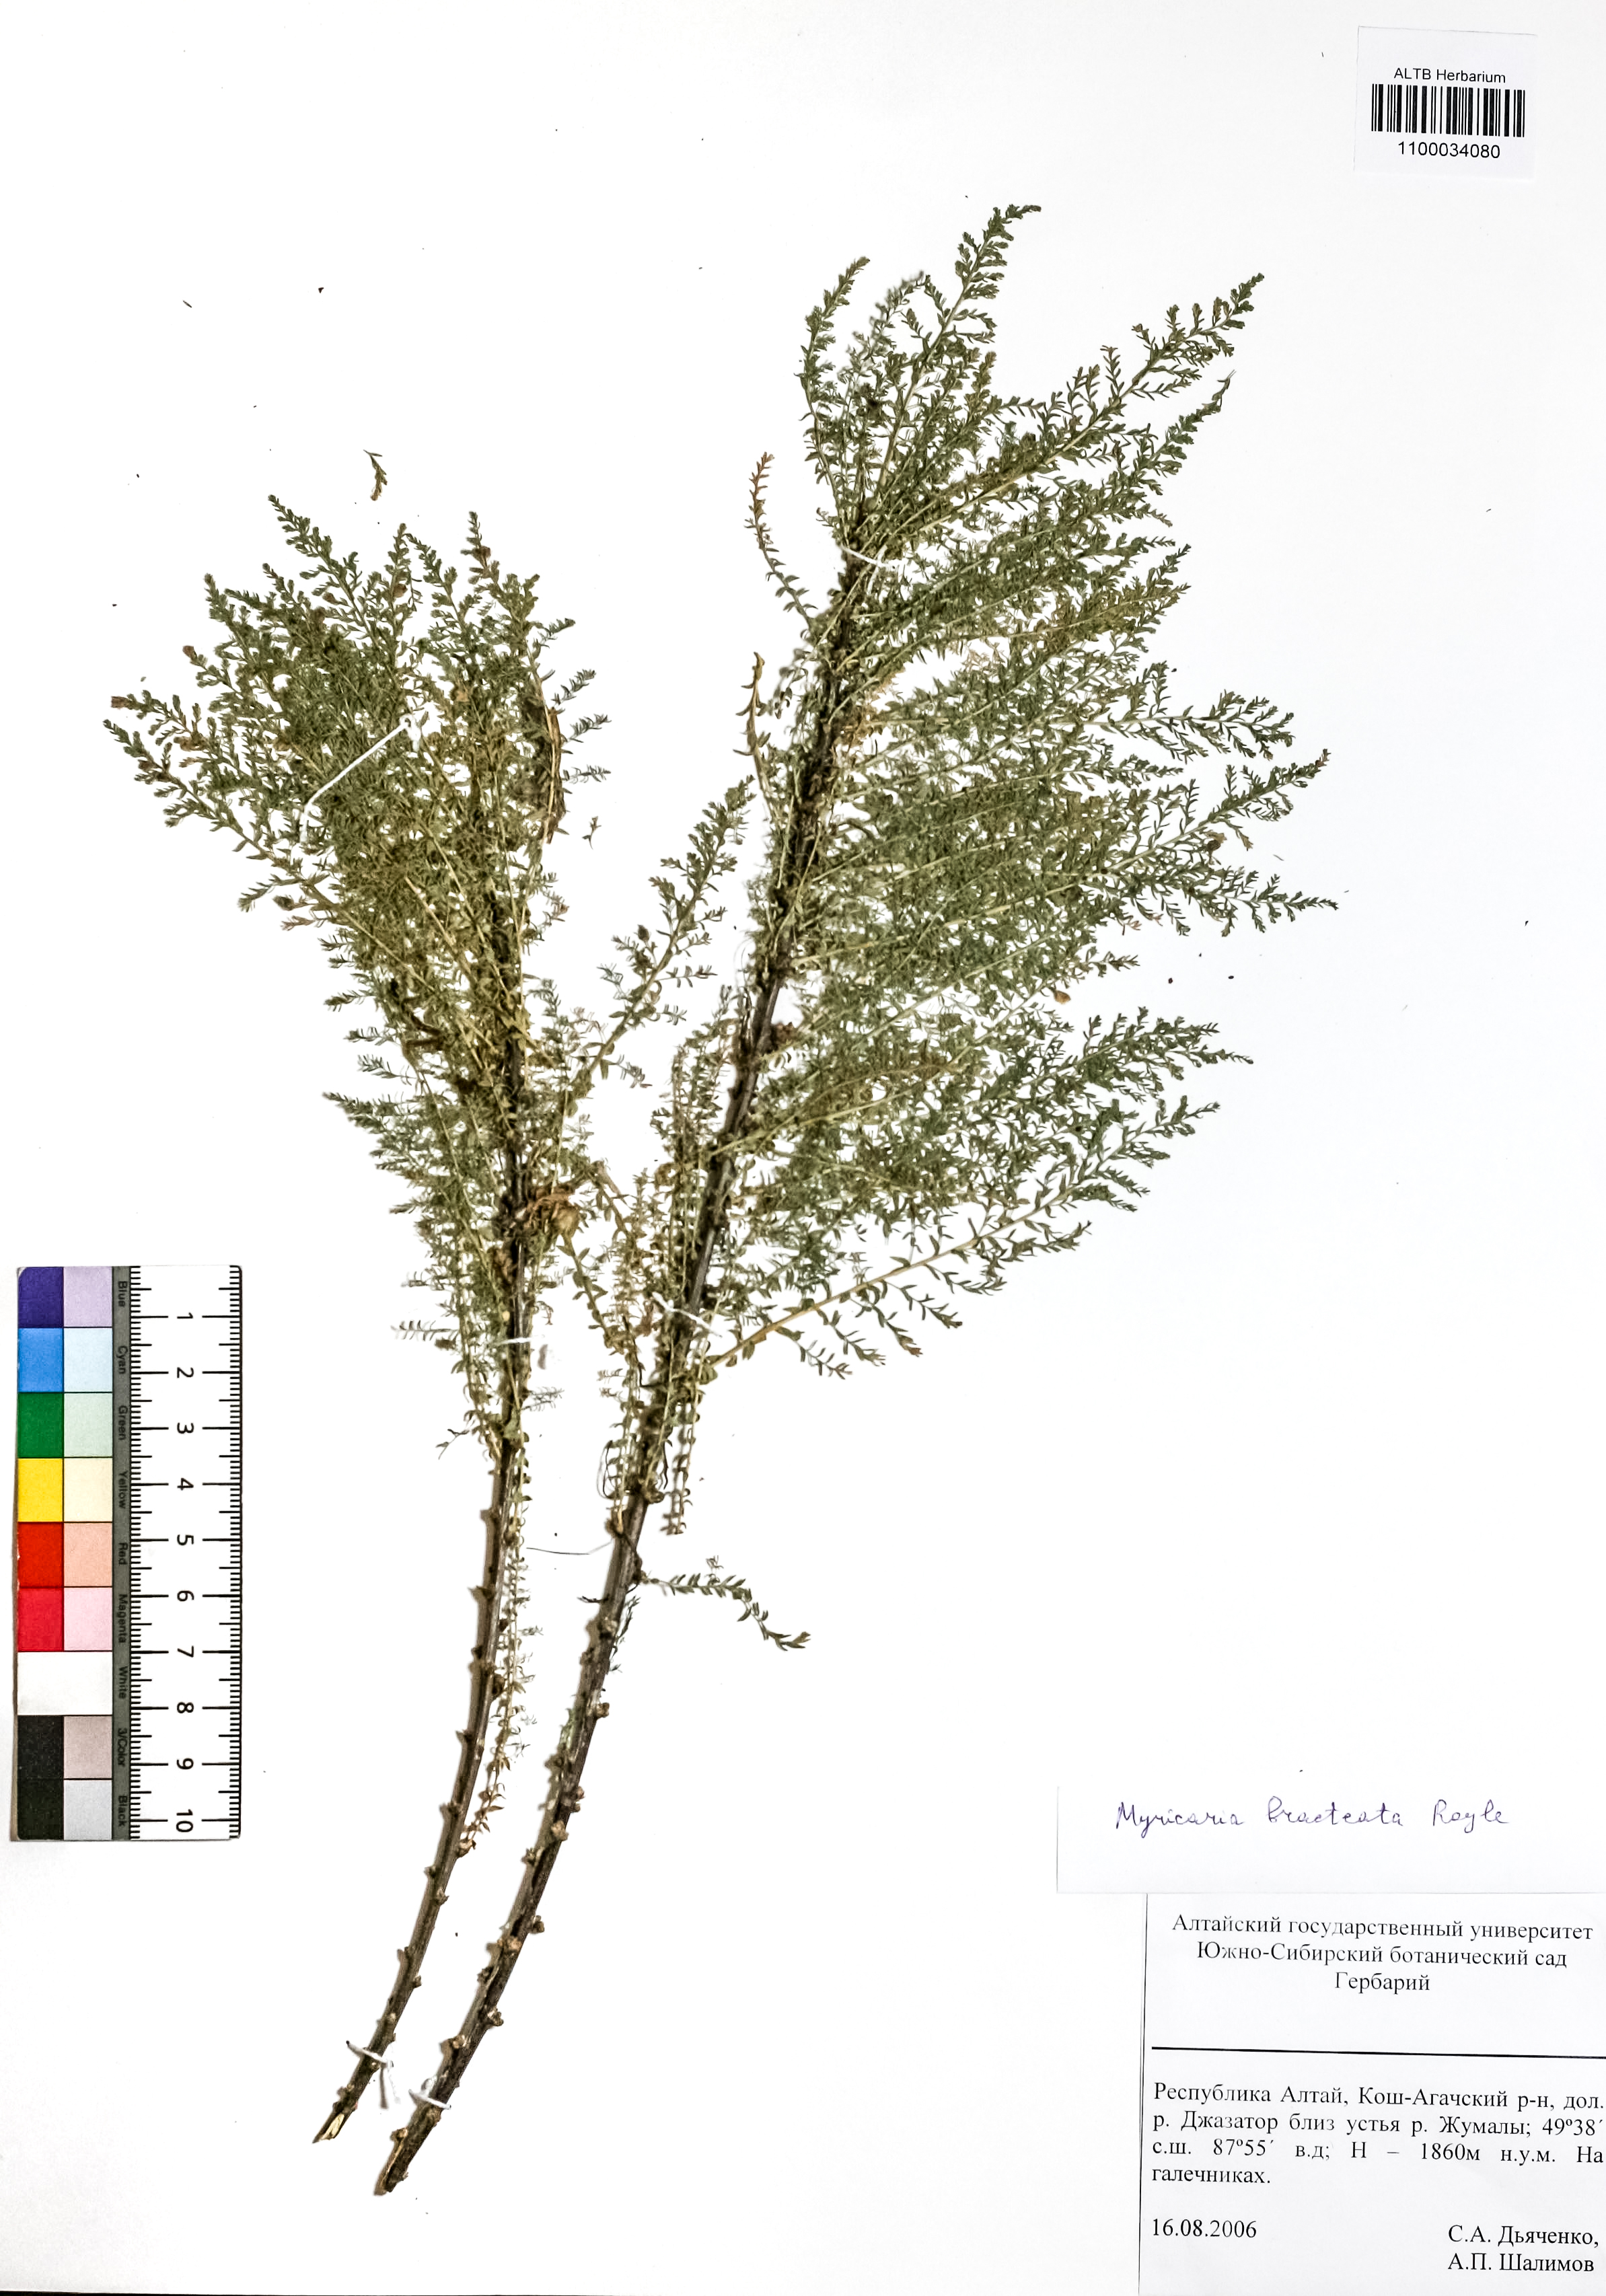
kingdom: Plantae
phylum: Tracheophyta
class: Magnoliopsida
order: Caryophyllales
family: Tamaricaceae
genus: Myricaria
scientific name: Myricaria bracteata
